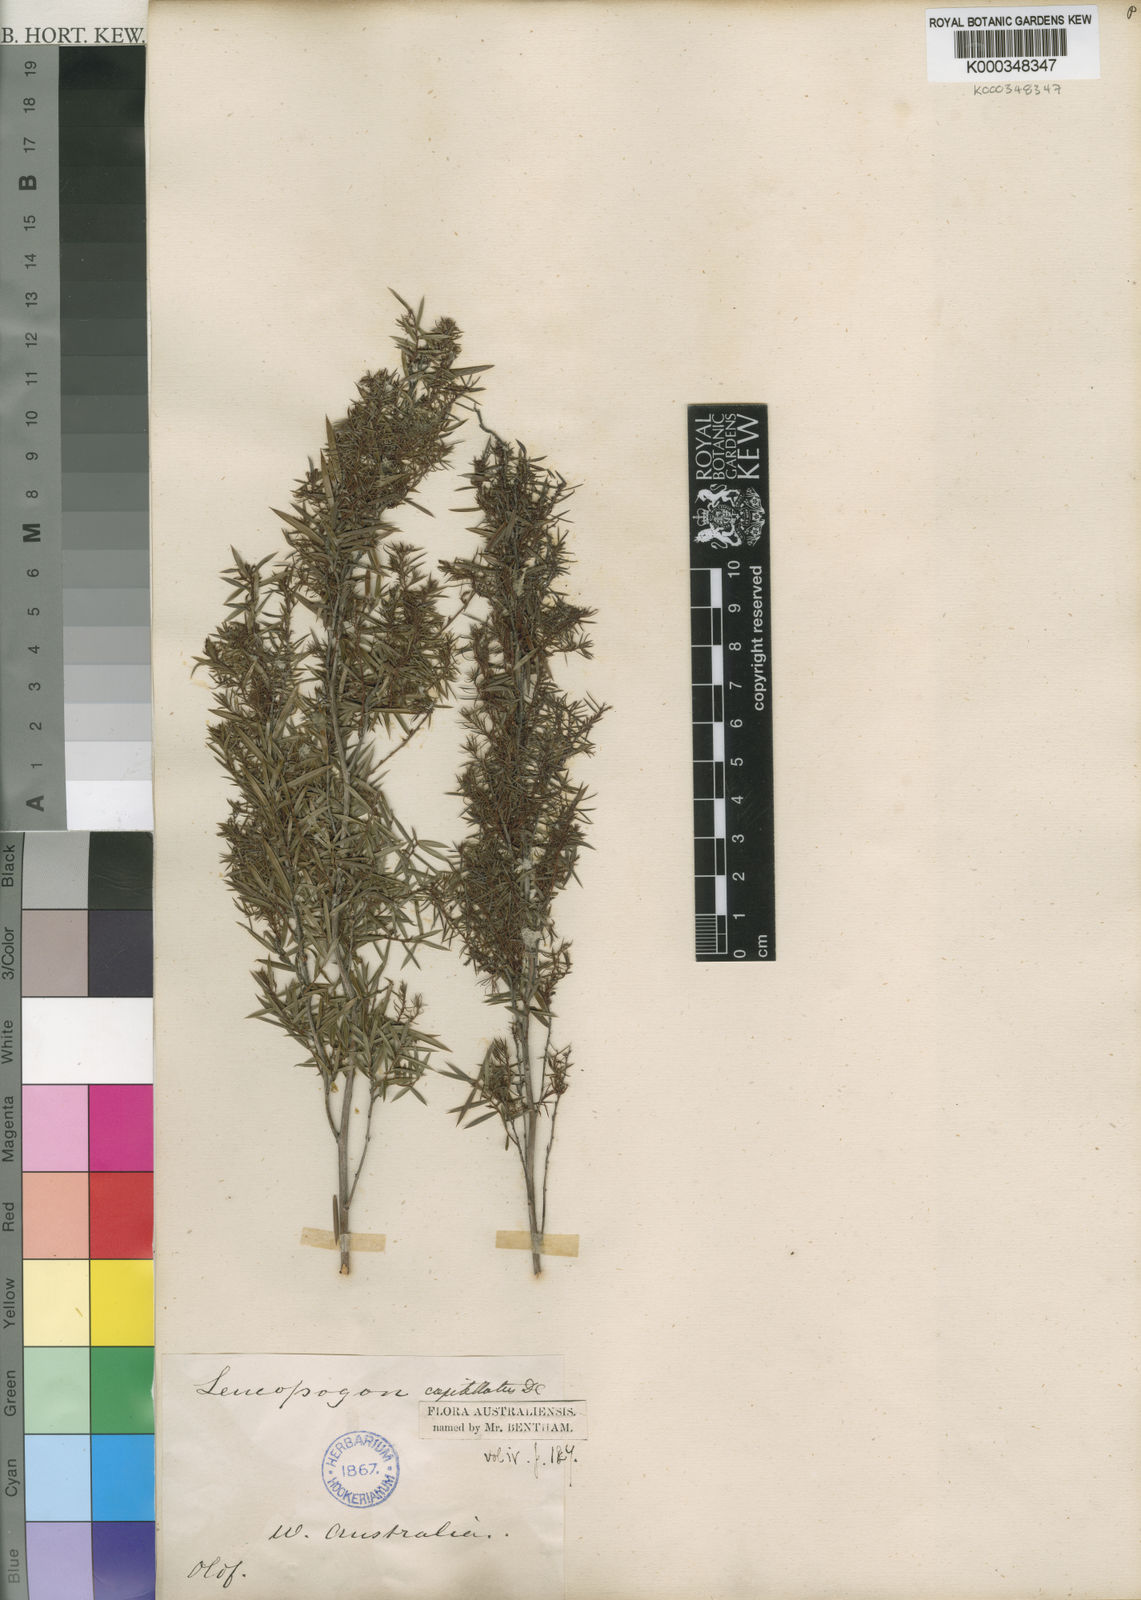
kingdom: Plantae
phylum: Tracheophyta
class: Magnoliopsida
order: Ericales
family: Ericaceae
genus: Leucopogon
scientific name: Leucopogon capitellatus
